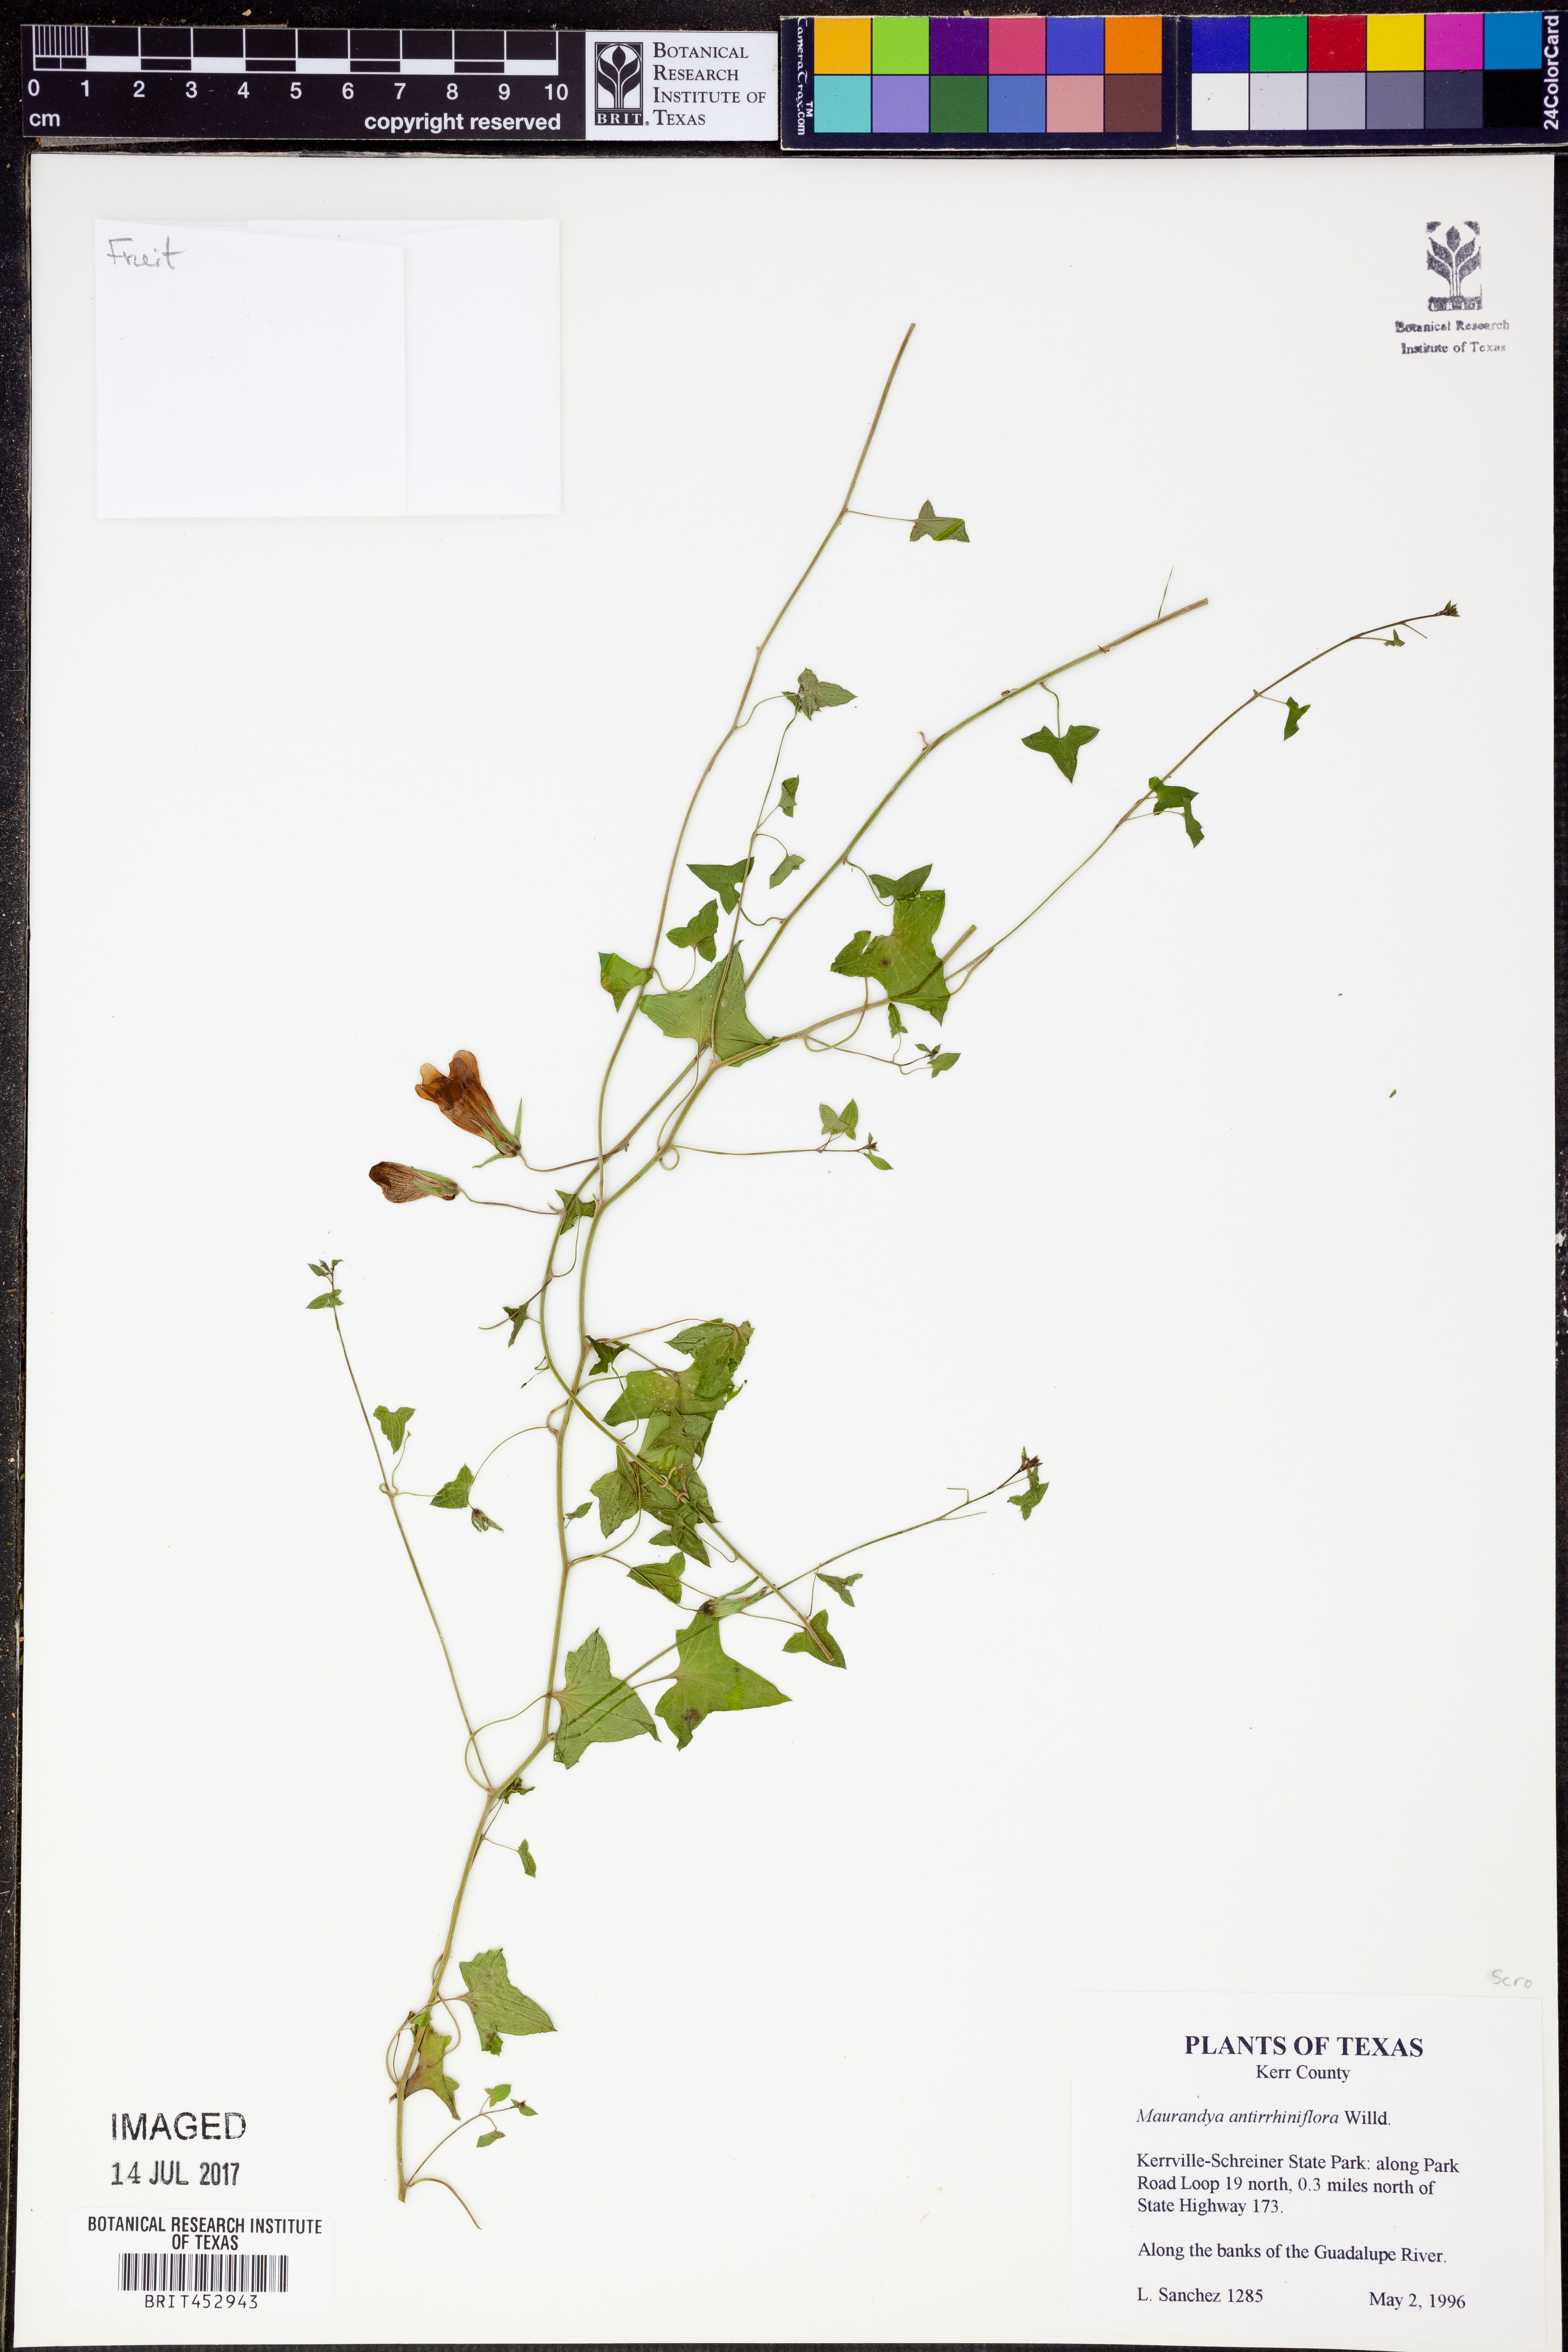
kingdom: Plantae
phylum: Tracheophyta
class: Magnoliopsida
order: Lamiales
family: Plantaginaceae
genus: Maurandella
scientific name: Maurandella antirrhiniflora
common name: Violet twining-snapdragon
